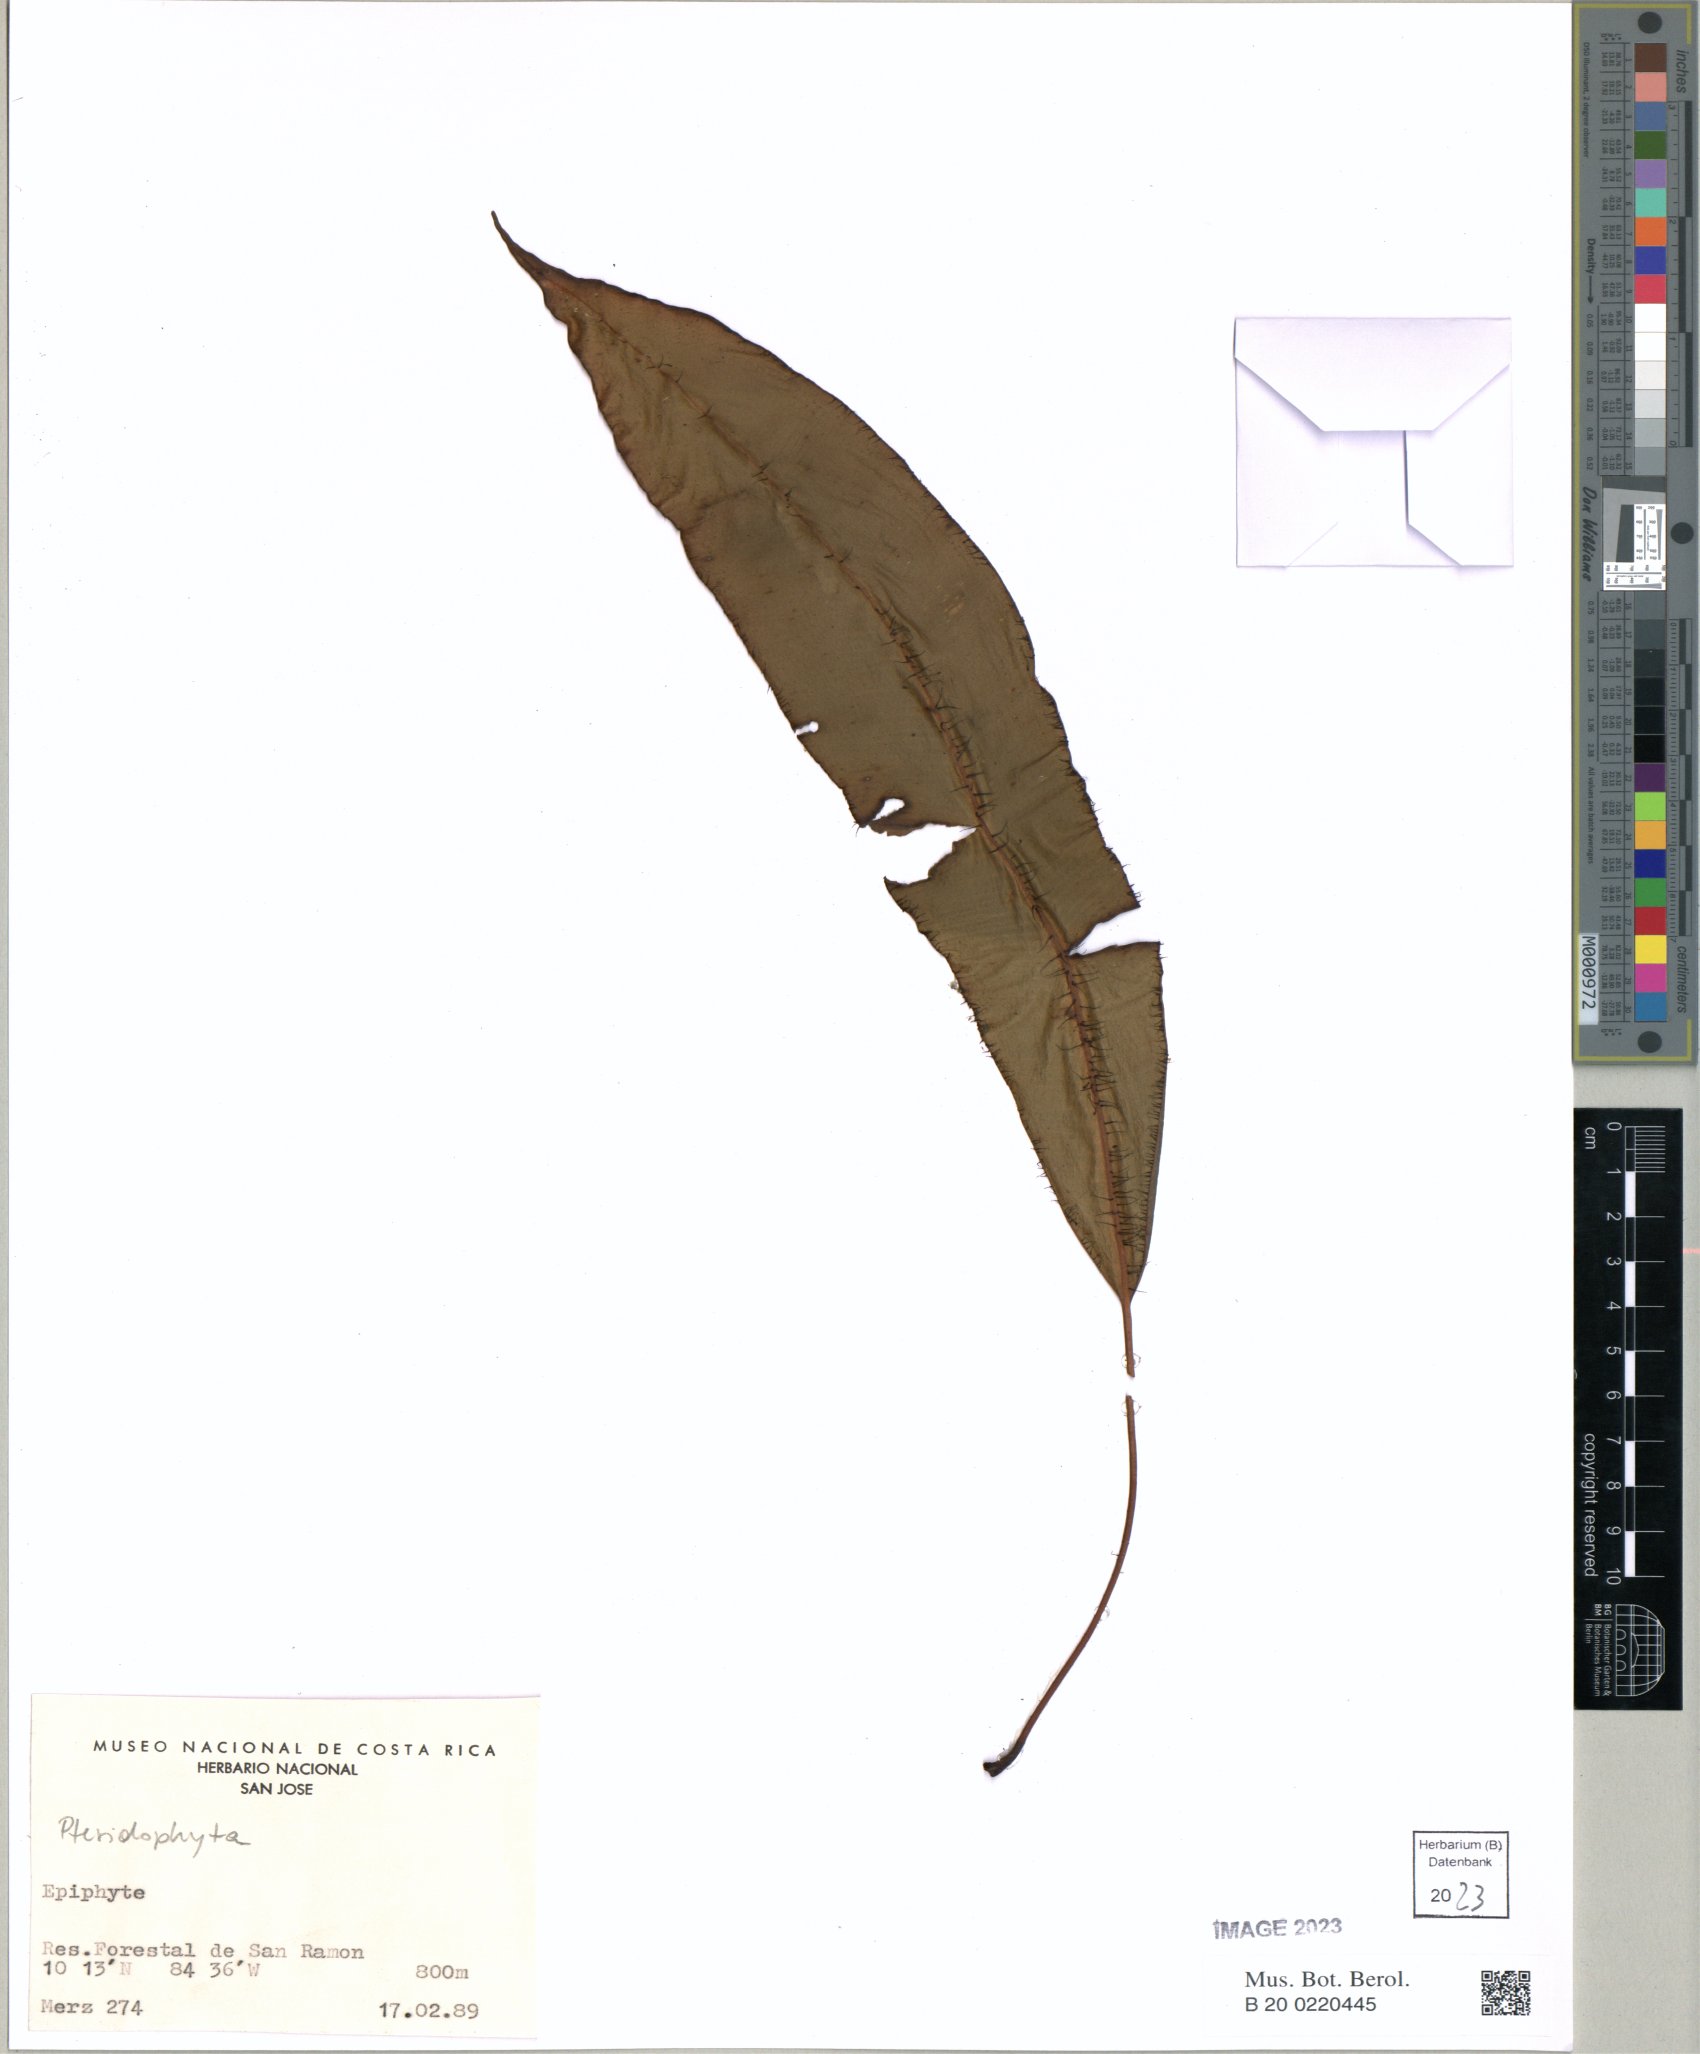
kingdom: Plantae
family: Pteridophyta
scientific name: Pteridophyta
